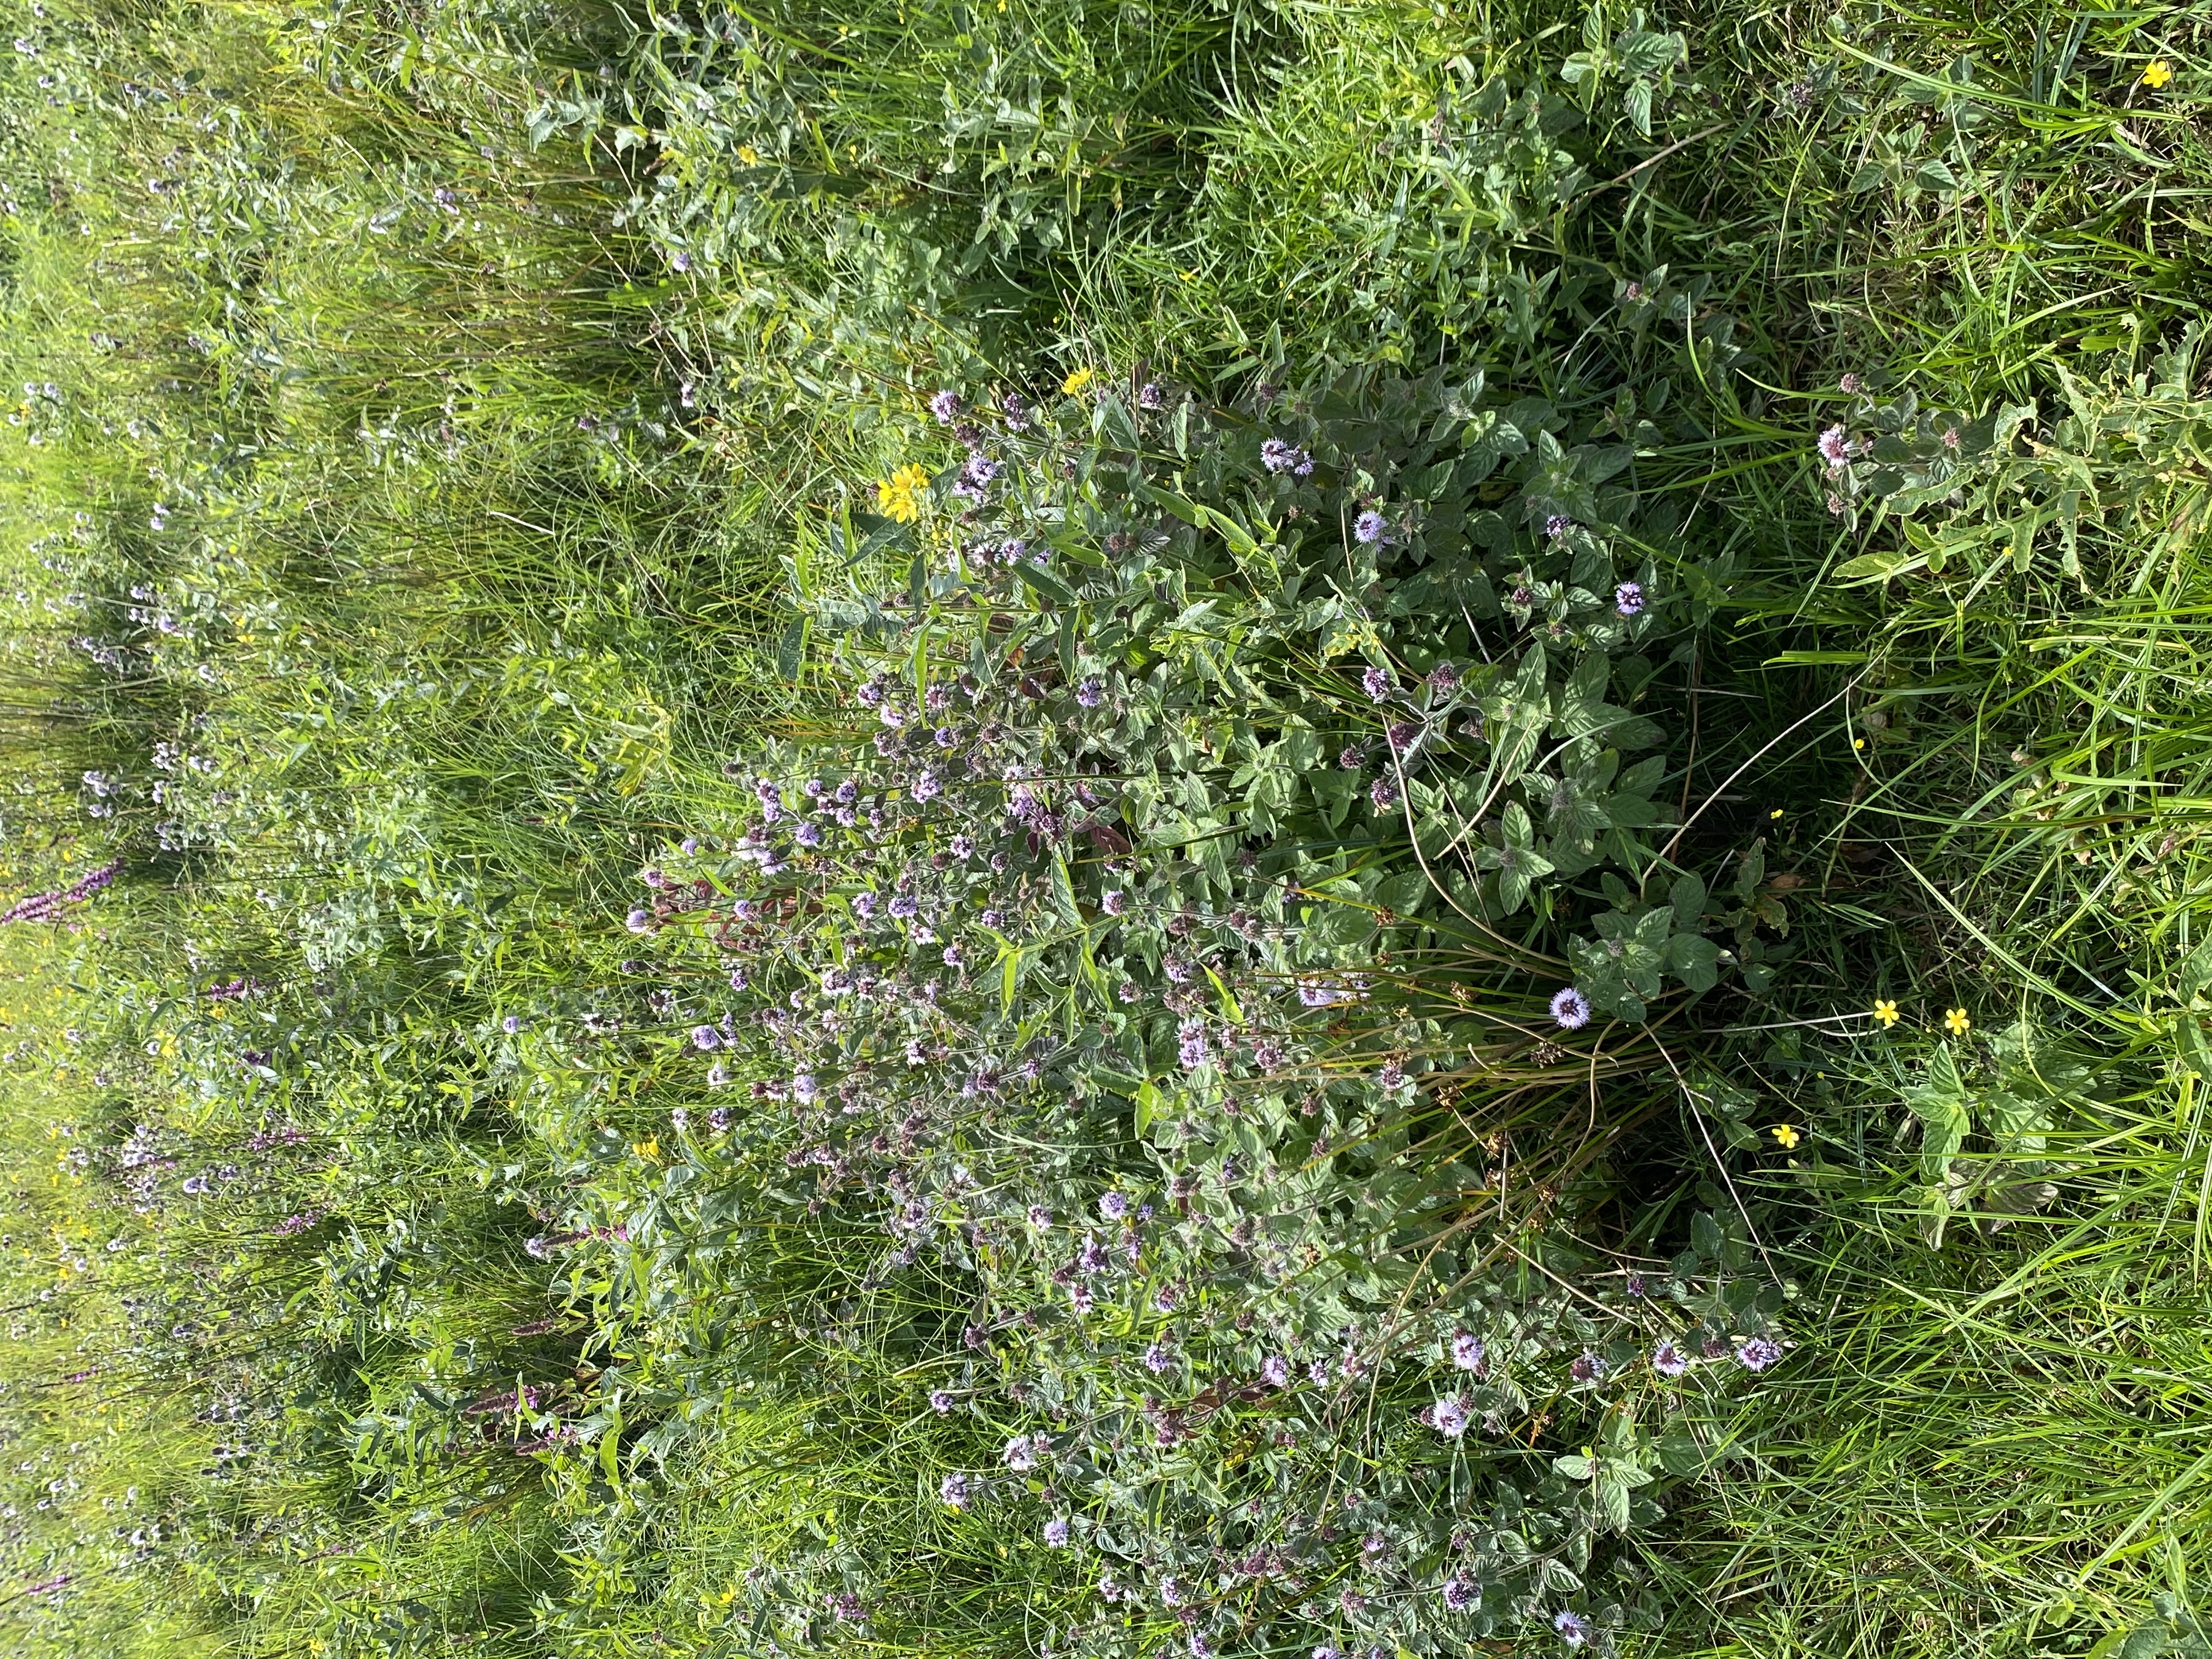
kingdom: Plantae
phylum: Tracheophyta
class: Magnoliopsida
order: Lamiales
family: Lamiaceae
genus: Mentha
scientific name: Mentha aquatica
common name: Vand-mynte
